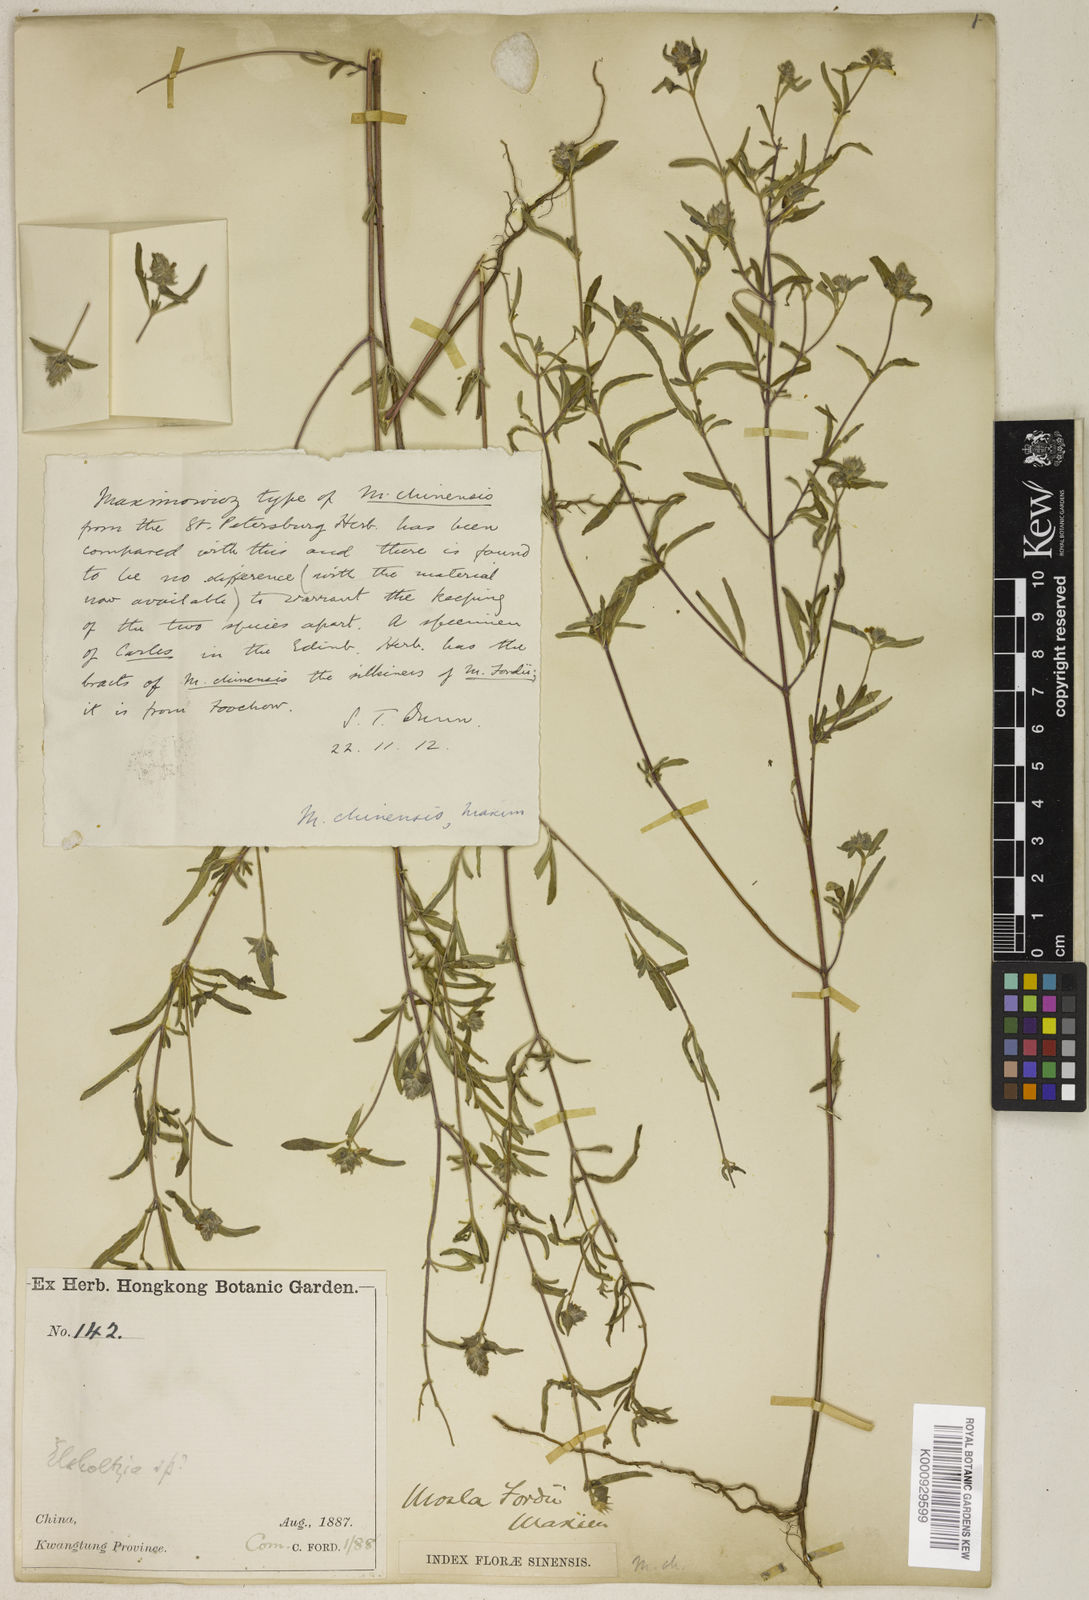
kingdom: Plantae
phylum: Tracheophyta
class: Magnoliopsida
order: Lamiales
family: Lamiaceae
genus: Mosla
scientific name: Mosla chinensis
